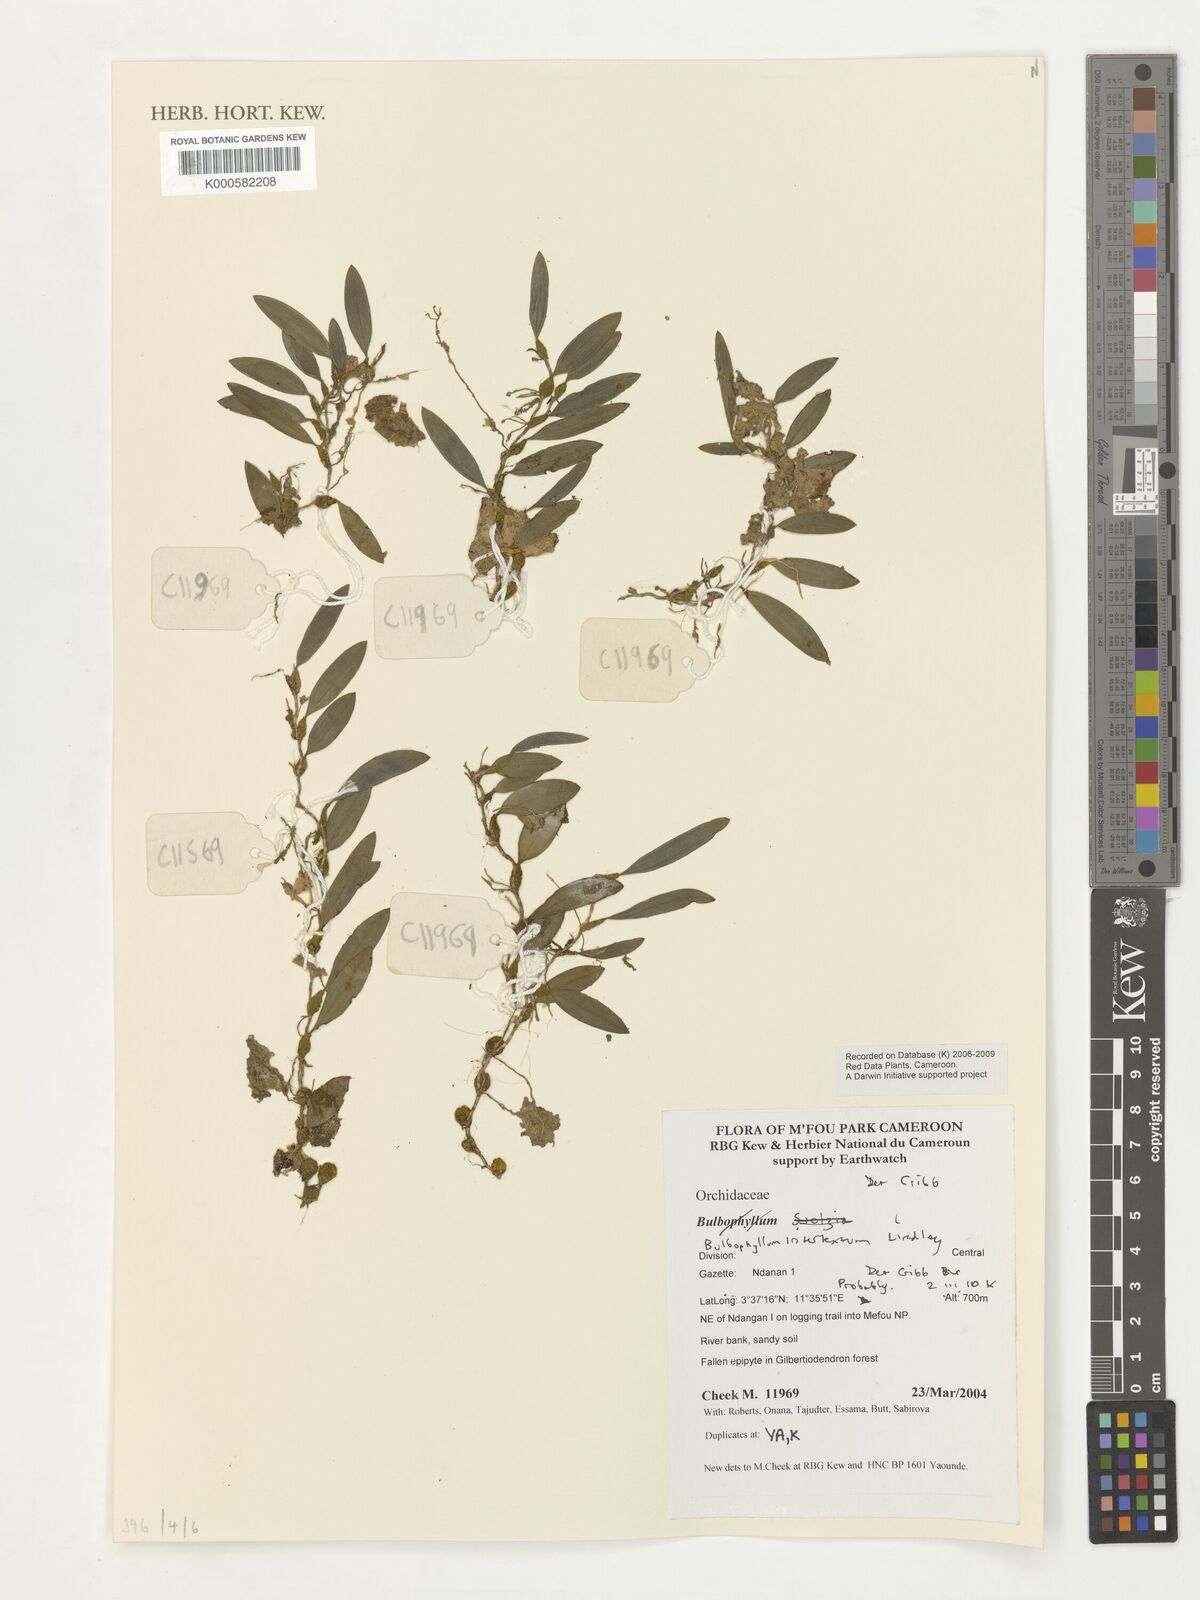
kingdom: Plantae
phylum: Tracheophyta
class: Liliopsida
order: Asparagales
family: Orchidaceae
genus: Bulbophyllum
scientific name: Bulbophyllum intertextum
